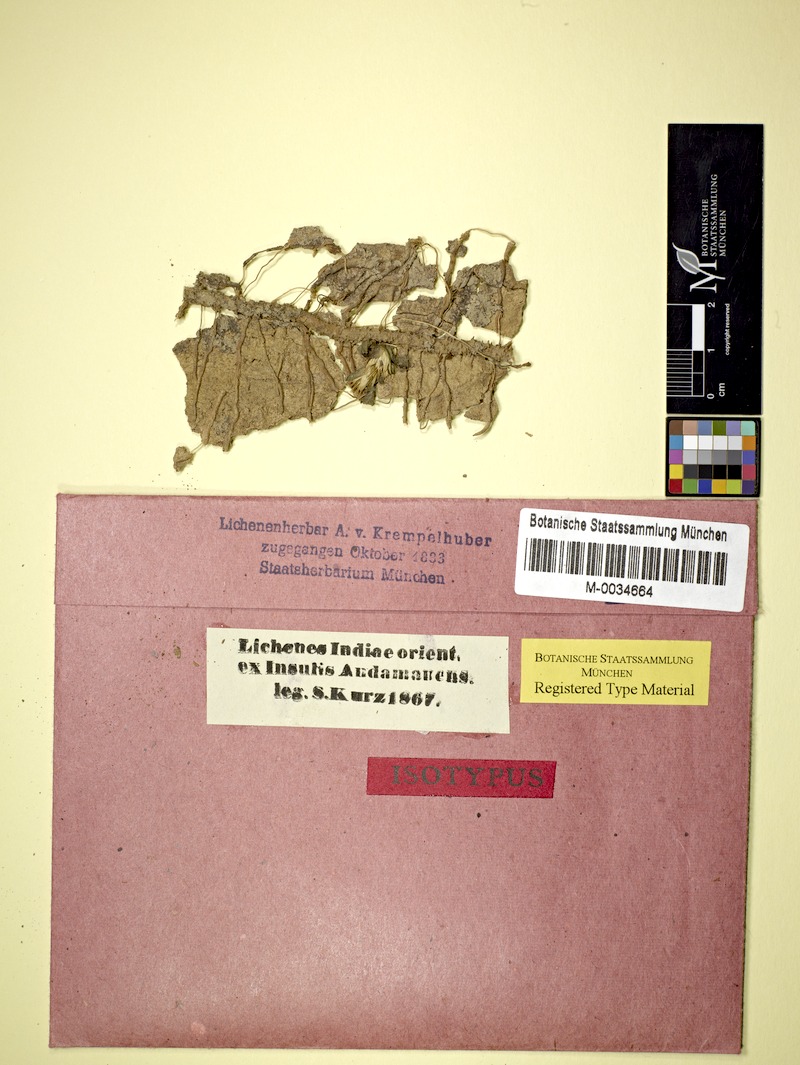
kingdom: Fungi
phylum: Ascomycota
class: Lecanoromycetes
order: Ostropales
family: Graphidaceae
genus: Ocellularia
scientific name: Ocellularia subcalvescens
